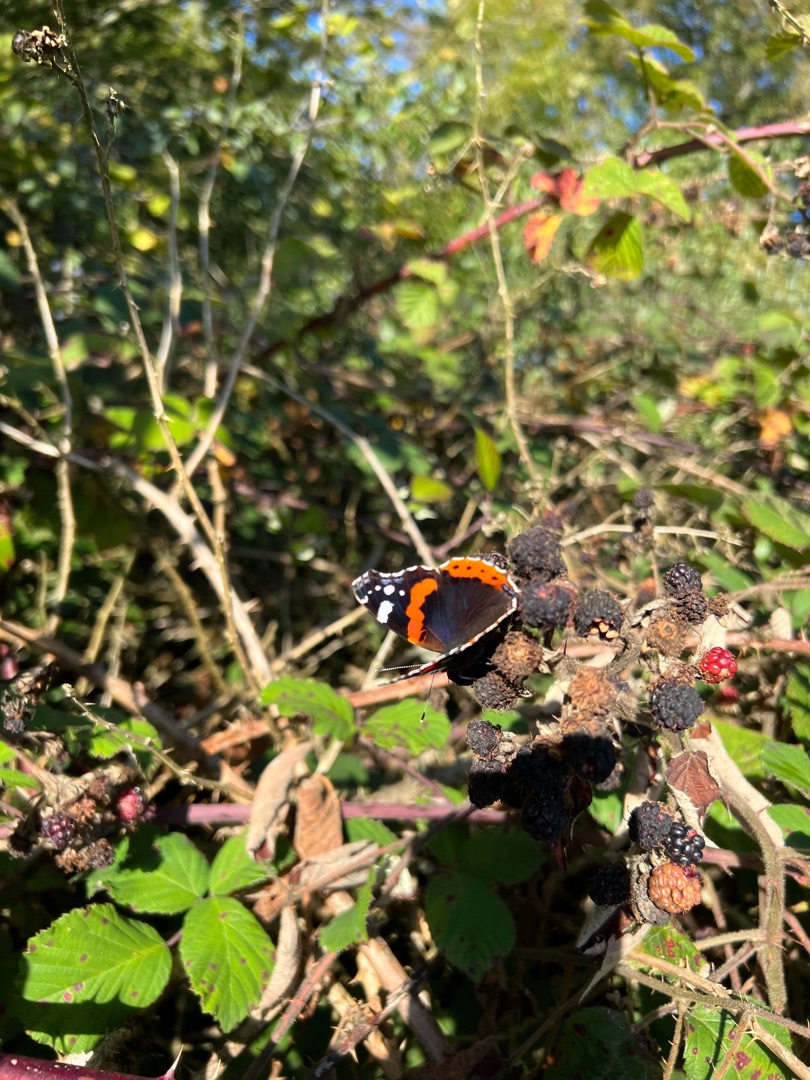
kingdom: Animalia
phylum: Arthropoda
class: Insecta
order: Lepidoptera
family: Nymphalidae
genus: Vanessa
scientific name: Vanessa atalanta
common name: Admiral
